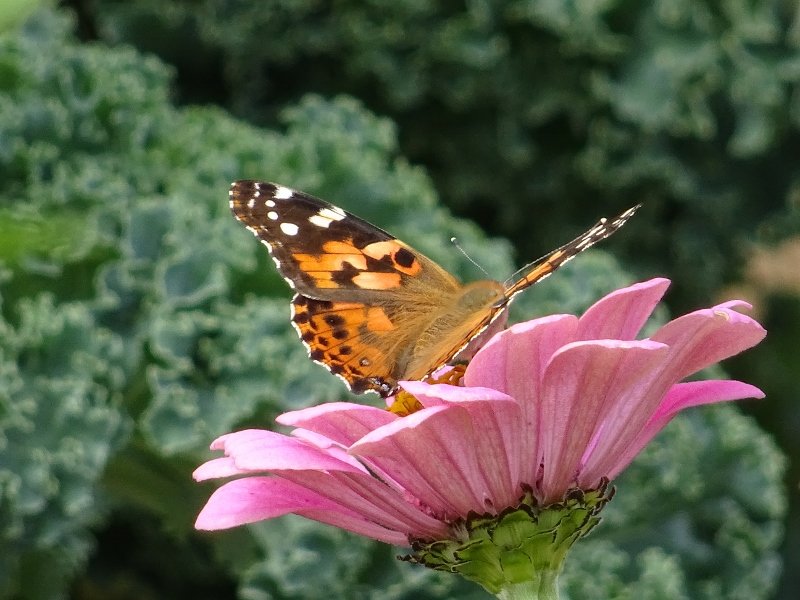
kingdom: Animalia
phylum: Arthropoda
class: Insecta
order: Lepidoptera
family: Nymphalidae
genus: Vanessa
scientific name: Vanessa cardui
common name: Painted Lady
